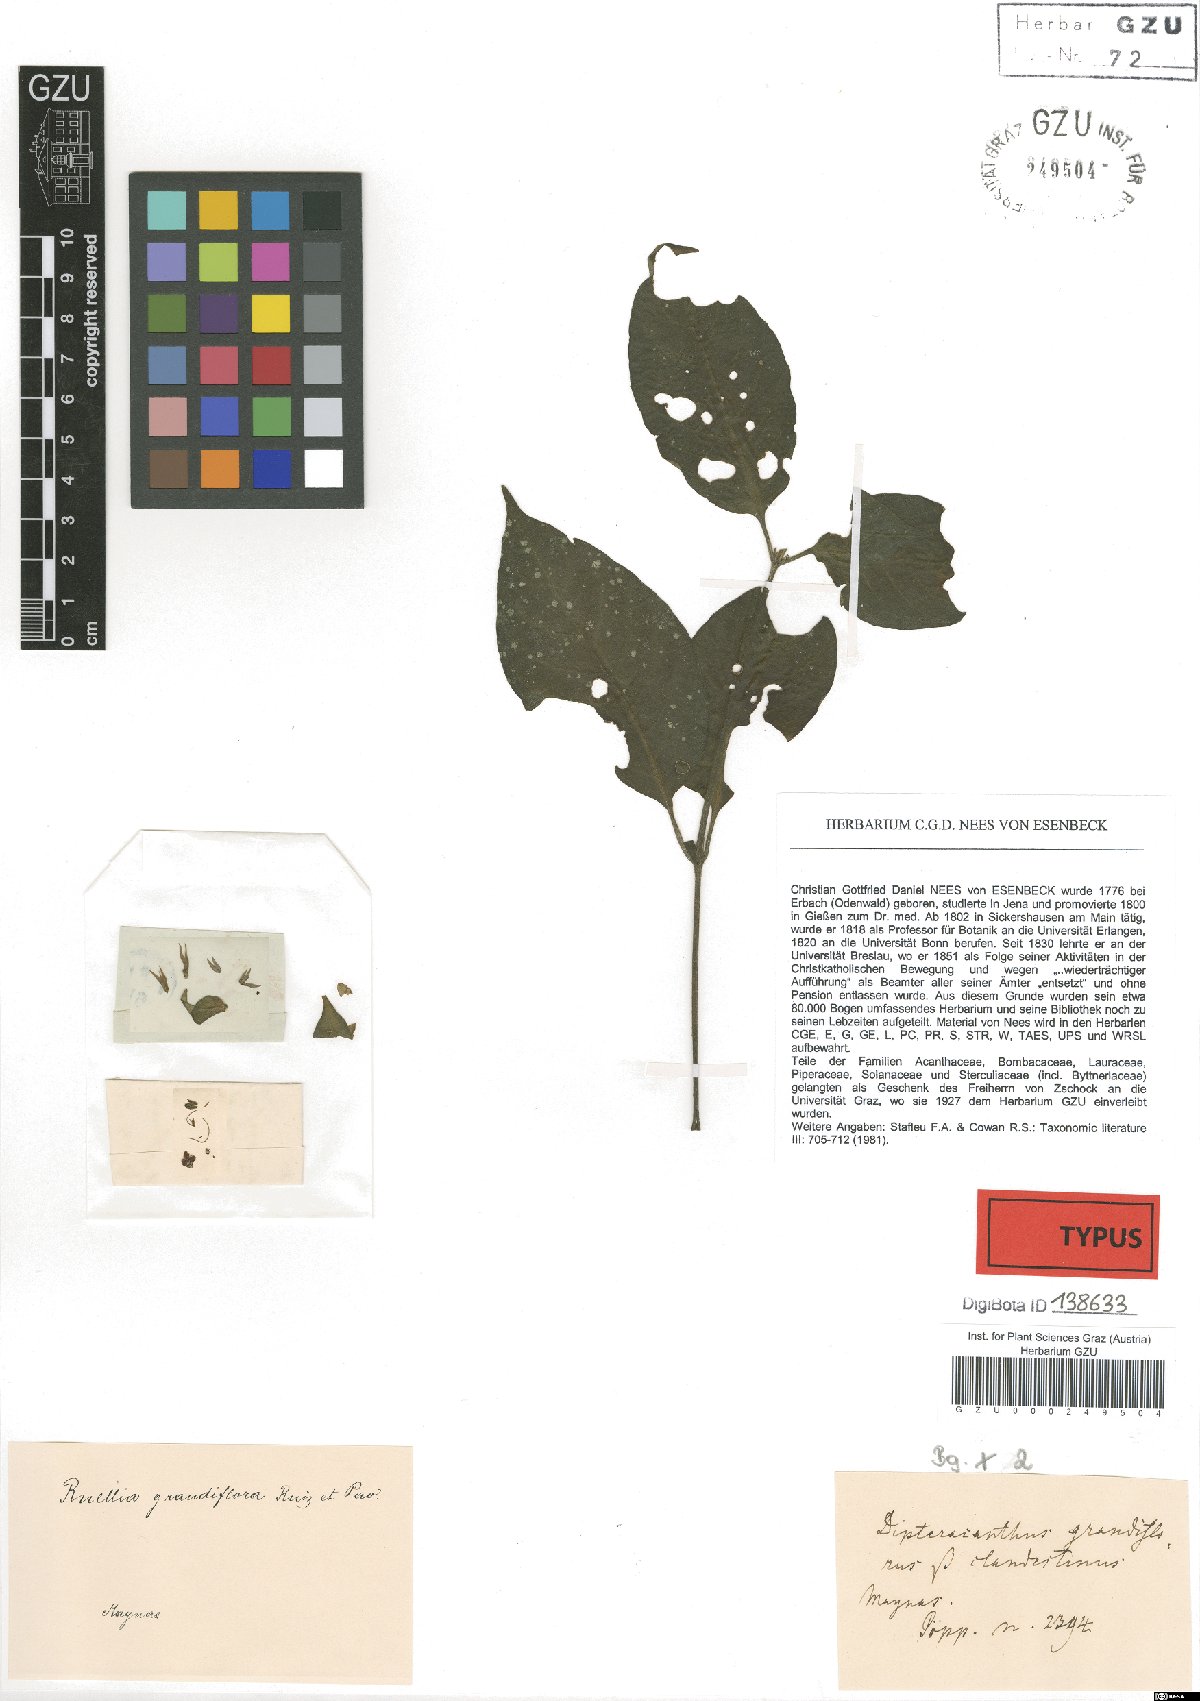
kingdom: Plantae
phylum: Tracheophyta
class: Magnoliopsida
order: Lamiales
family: Acanthaceae
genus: Ruellia
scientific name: Ruellia yurimaguensis
